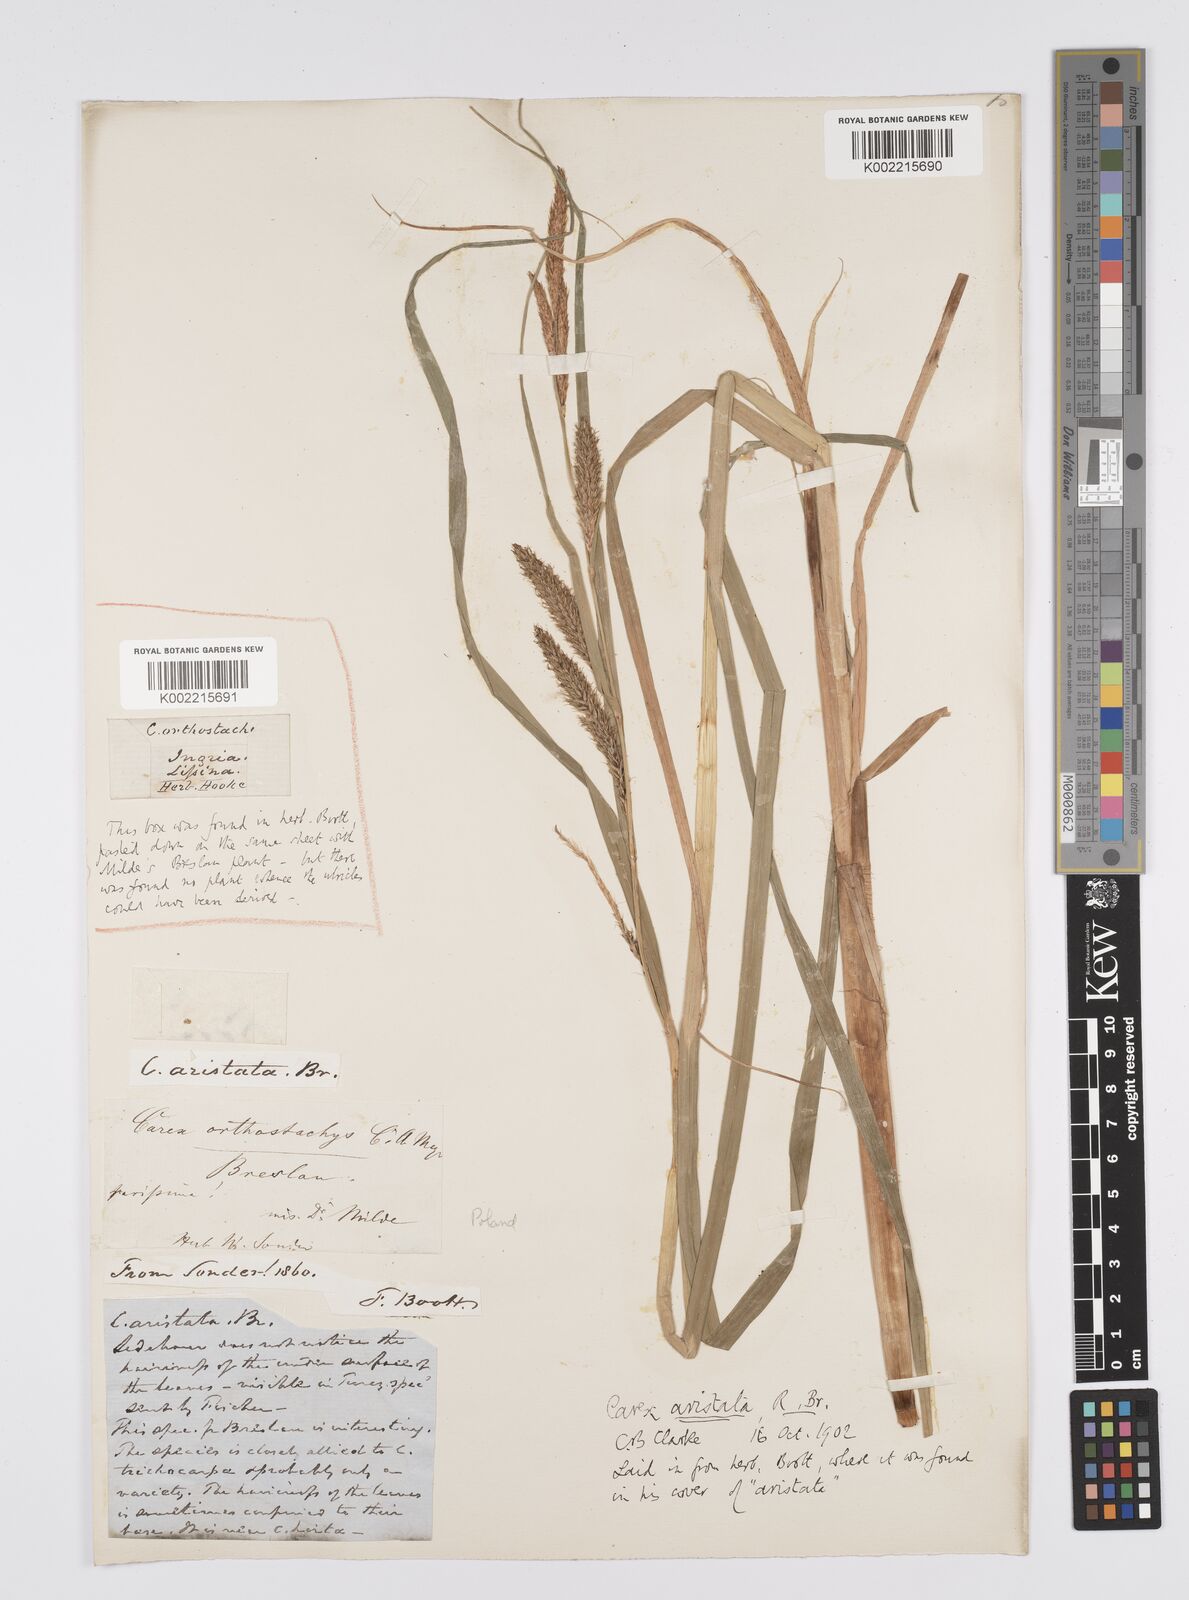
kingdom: Plantae
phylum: Tracheophyta
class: Liliopsida
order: Poales
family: Cyperaceae
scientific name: Cyperaceae
